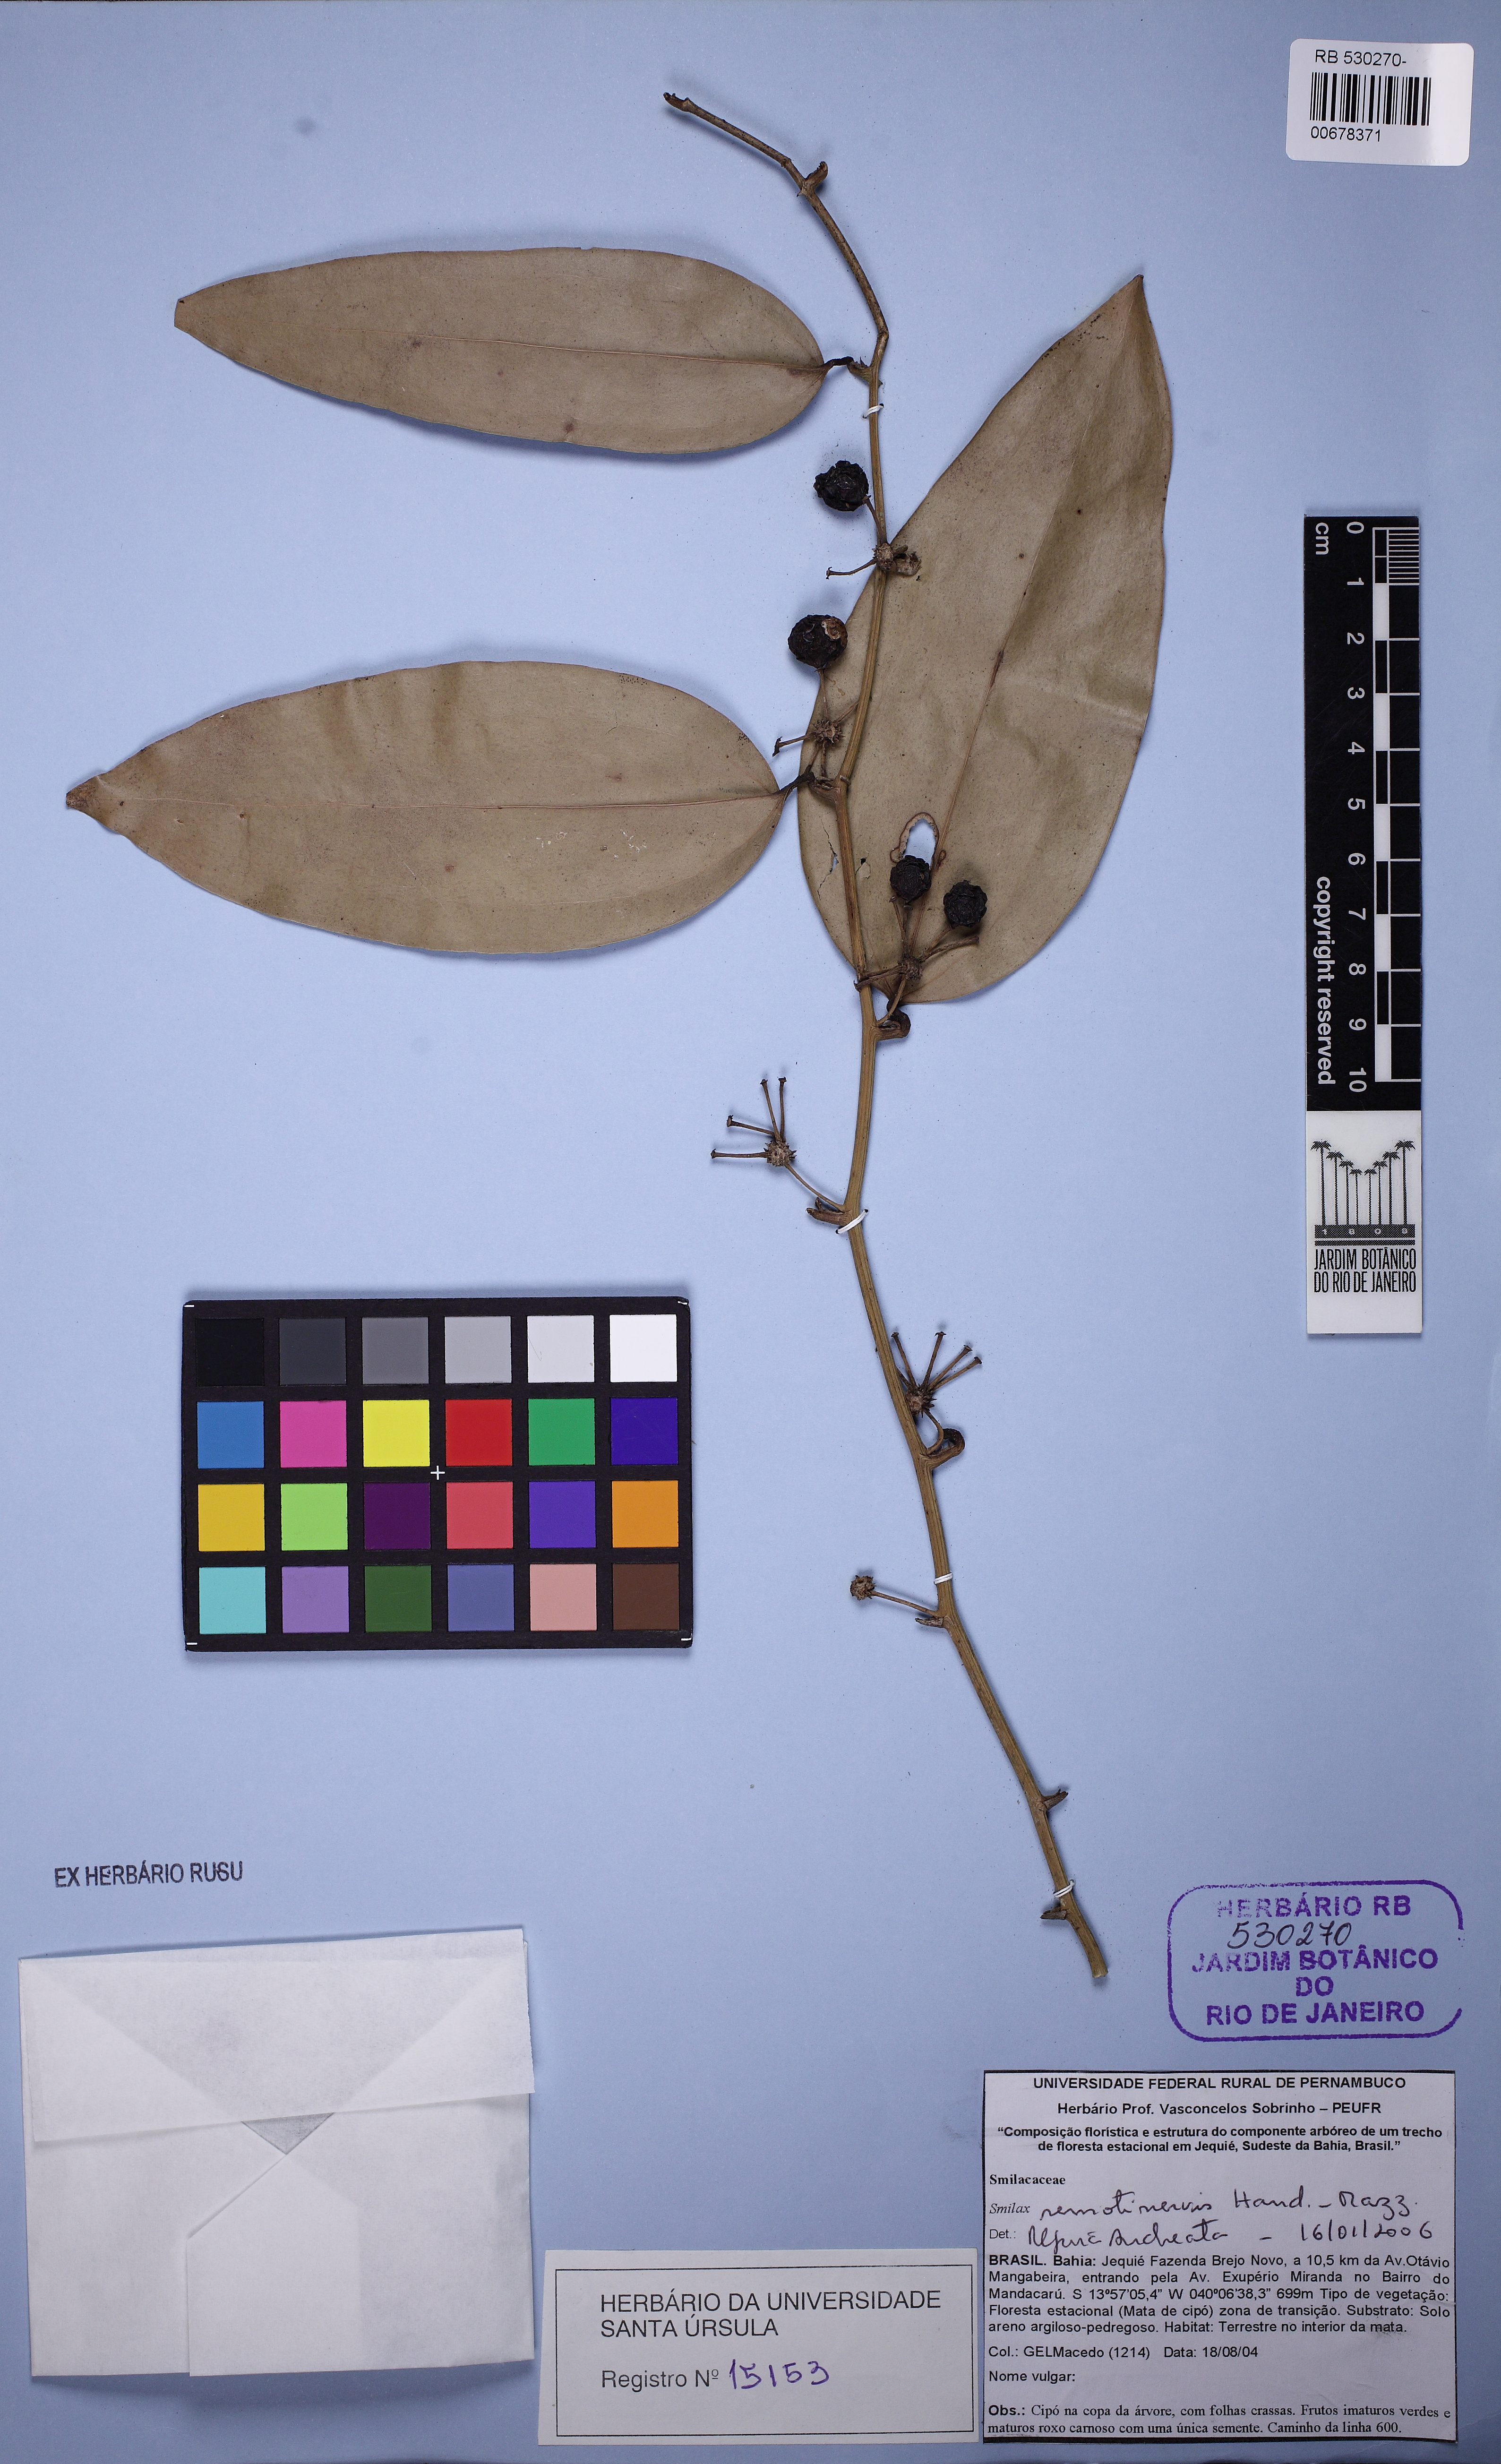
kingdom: Plantae
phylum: Tracheophyta
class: Liliopsida
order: Liliales
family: Smilacaceae
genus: Smilax
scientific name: Smilax remotinervis
